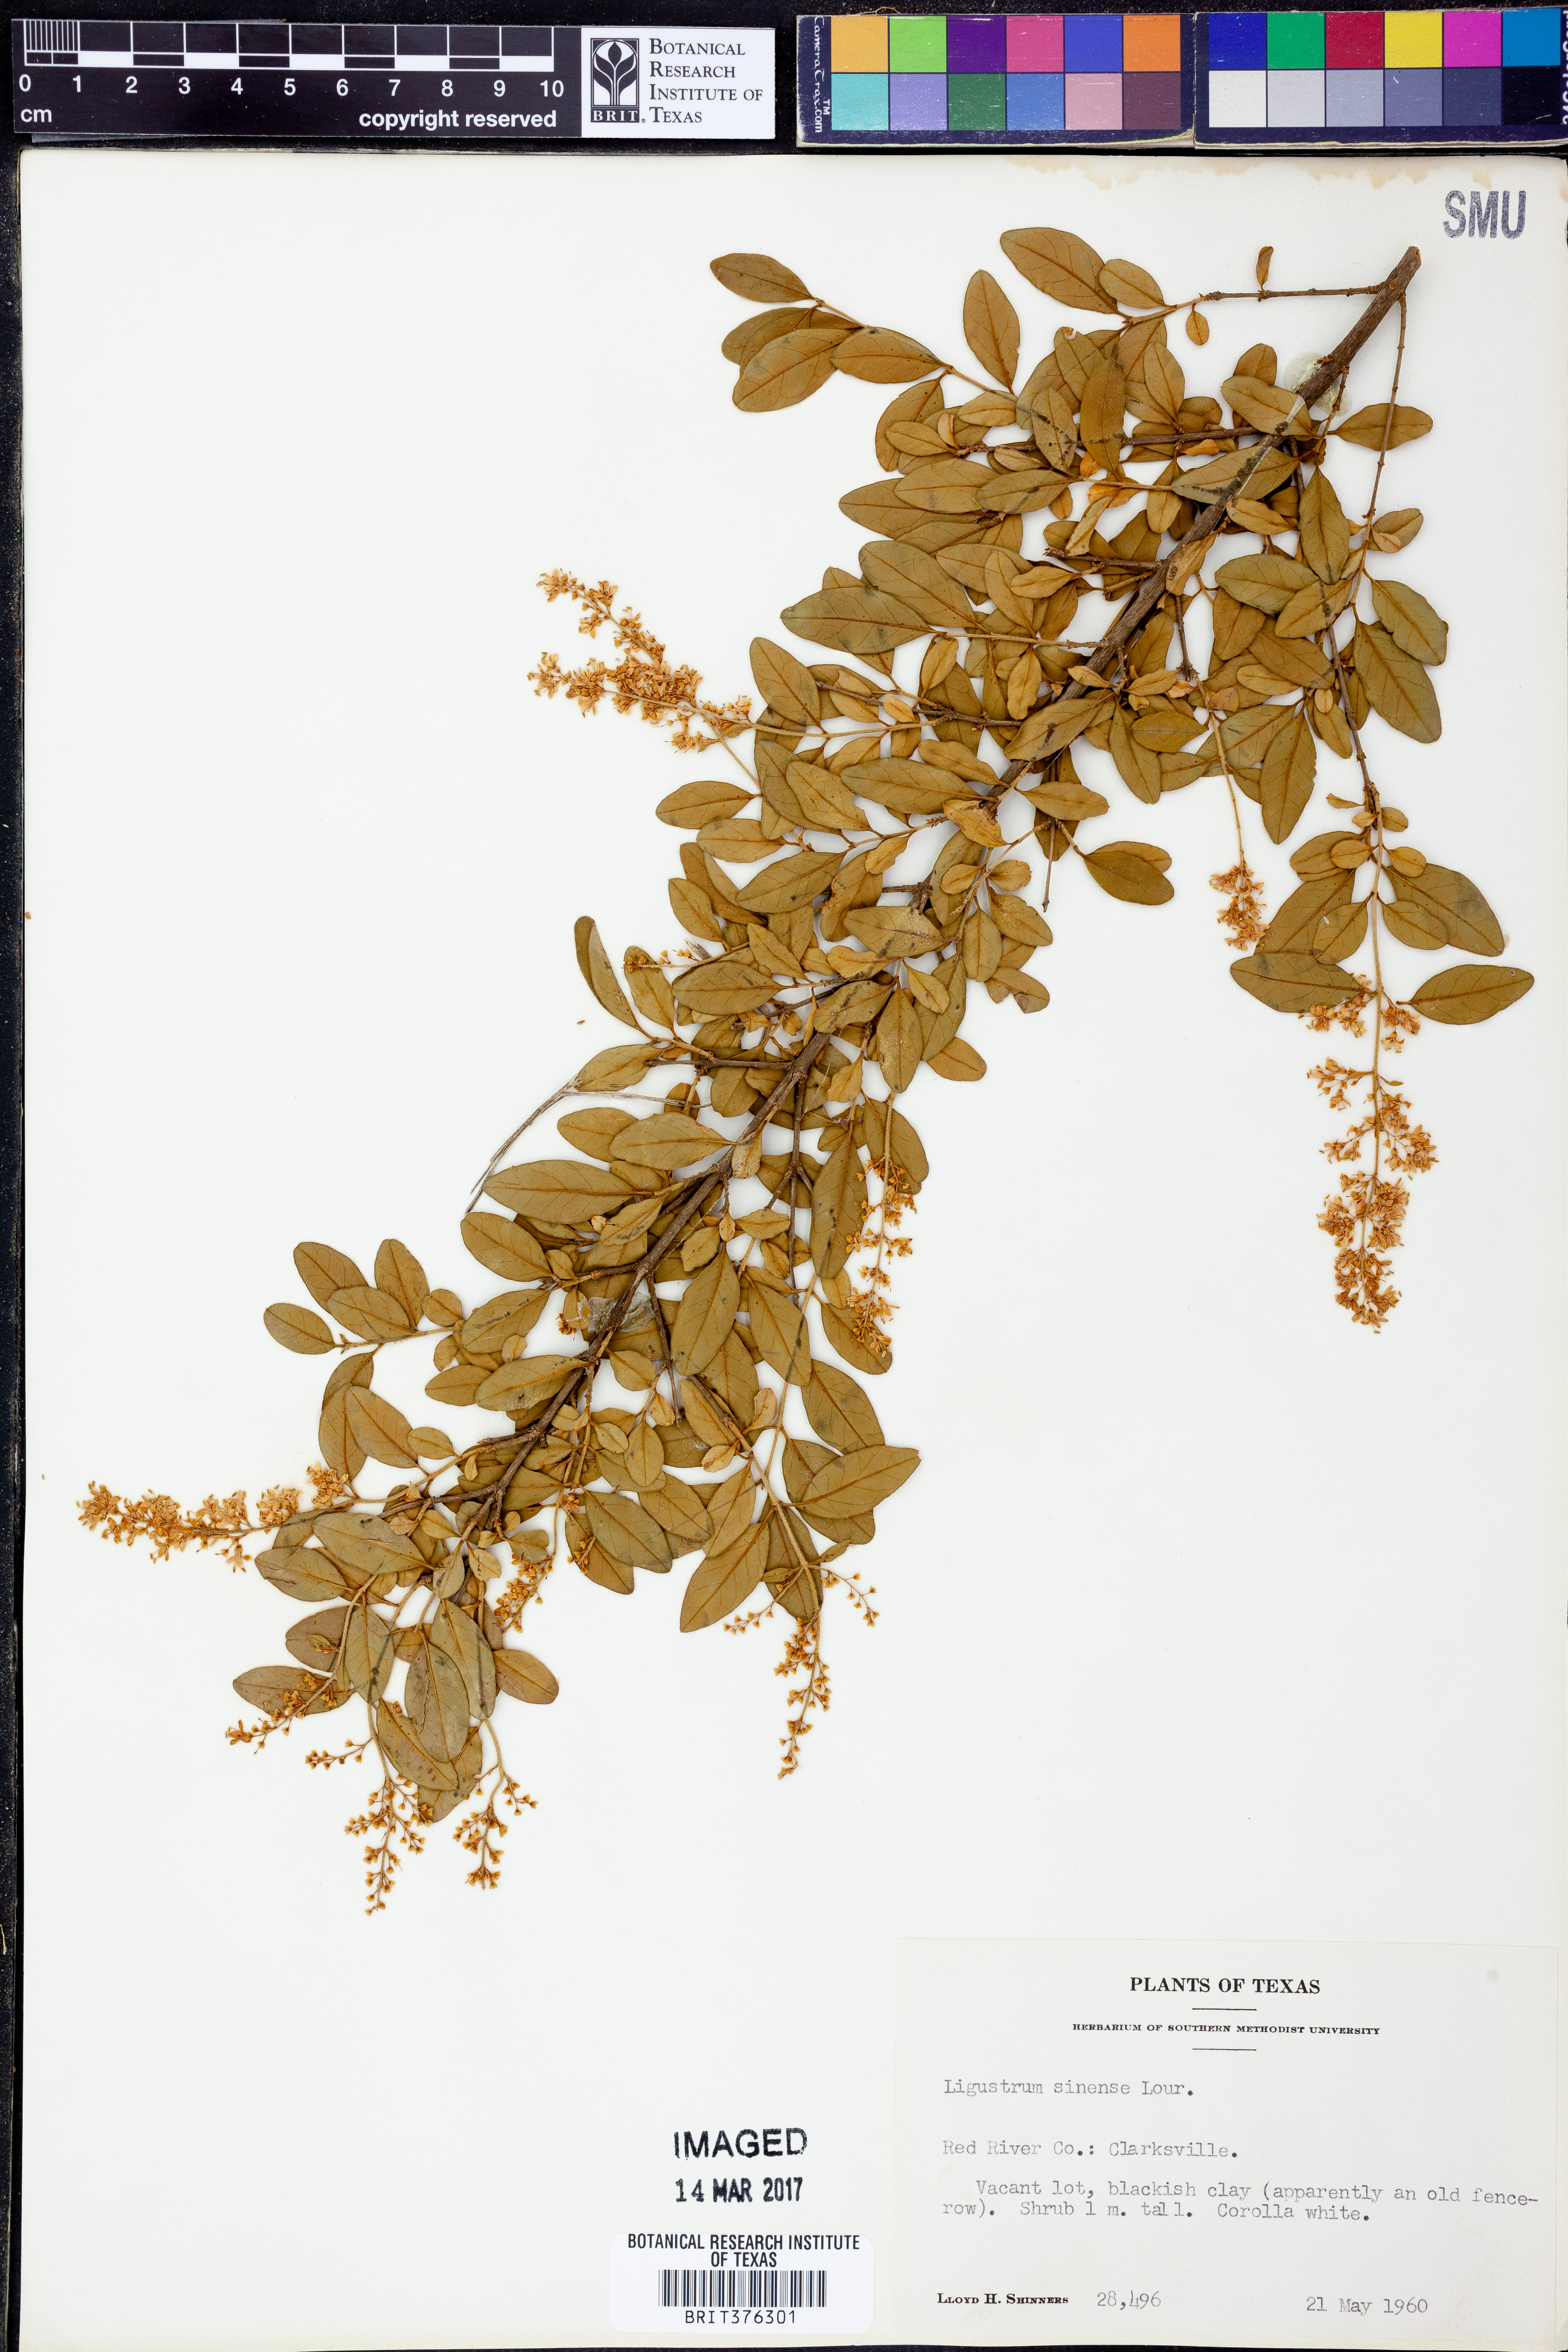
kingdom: Plantae
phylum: Tracheophyta
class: Magnoliopsida
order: Lamiales
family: Oleaceae
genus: Ligustrum
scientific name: Ligustrum sinense
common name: Chinese privet
